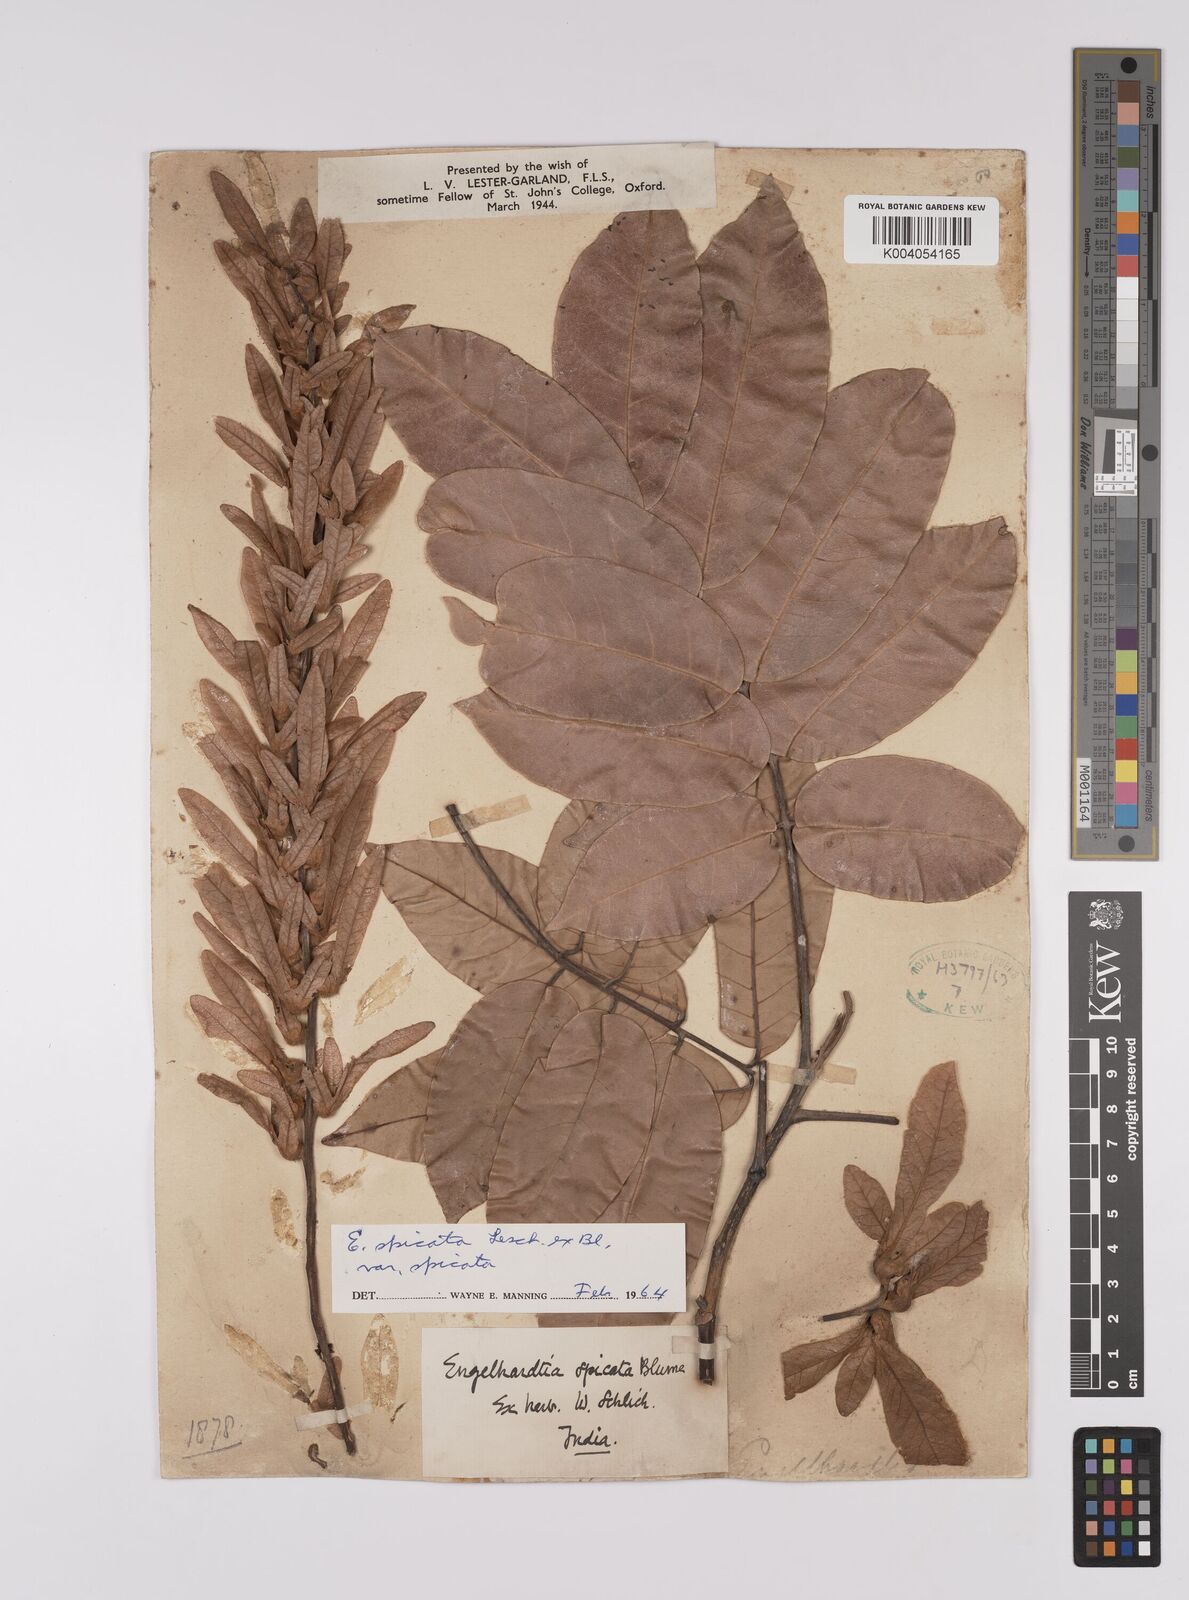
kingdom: Plantae
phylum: Tracheophyta
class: Magnoliopsida
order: Fagales
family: Juglandaceae
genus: Engelhardia
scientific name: Engelhardia spicata
